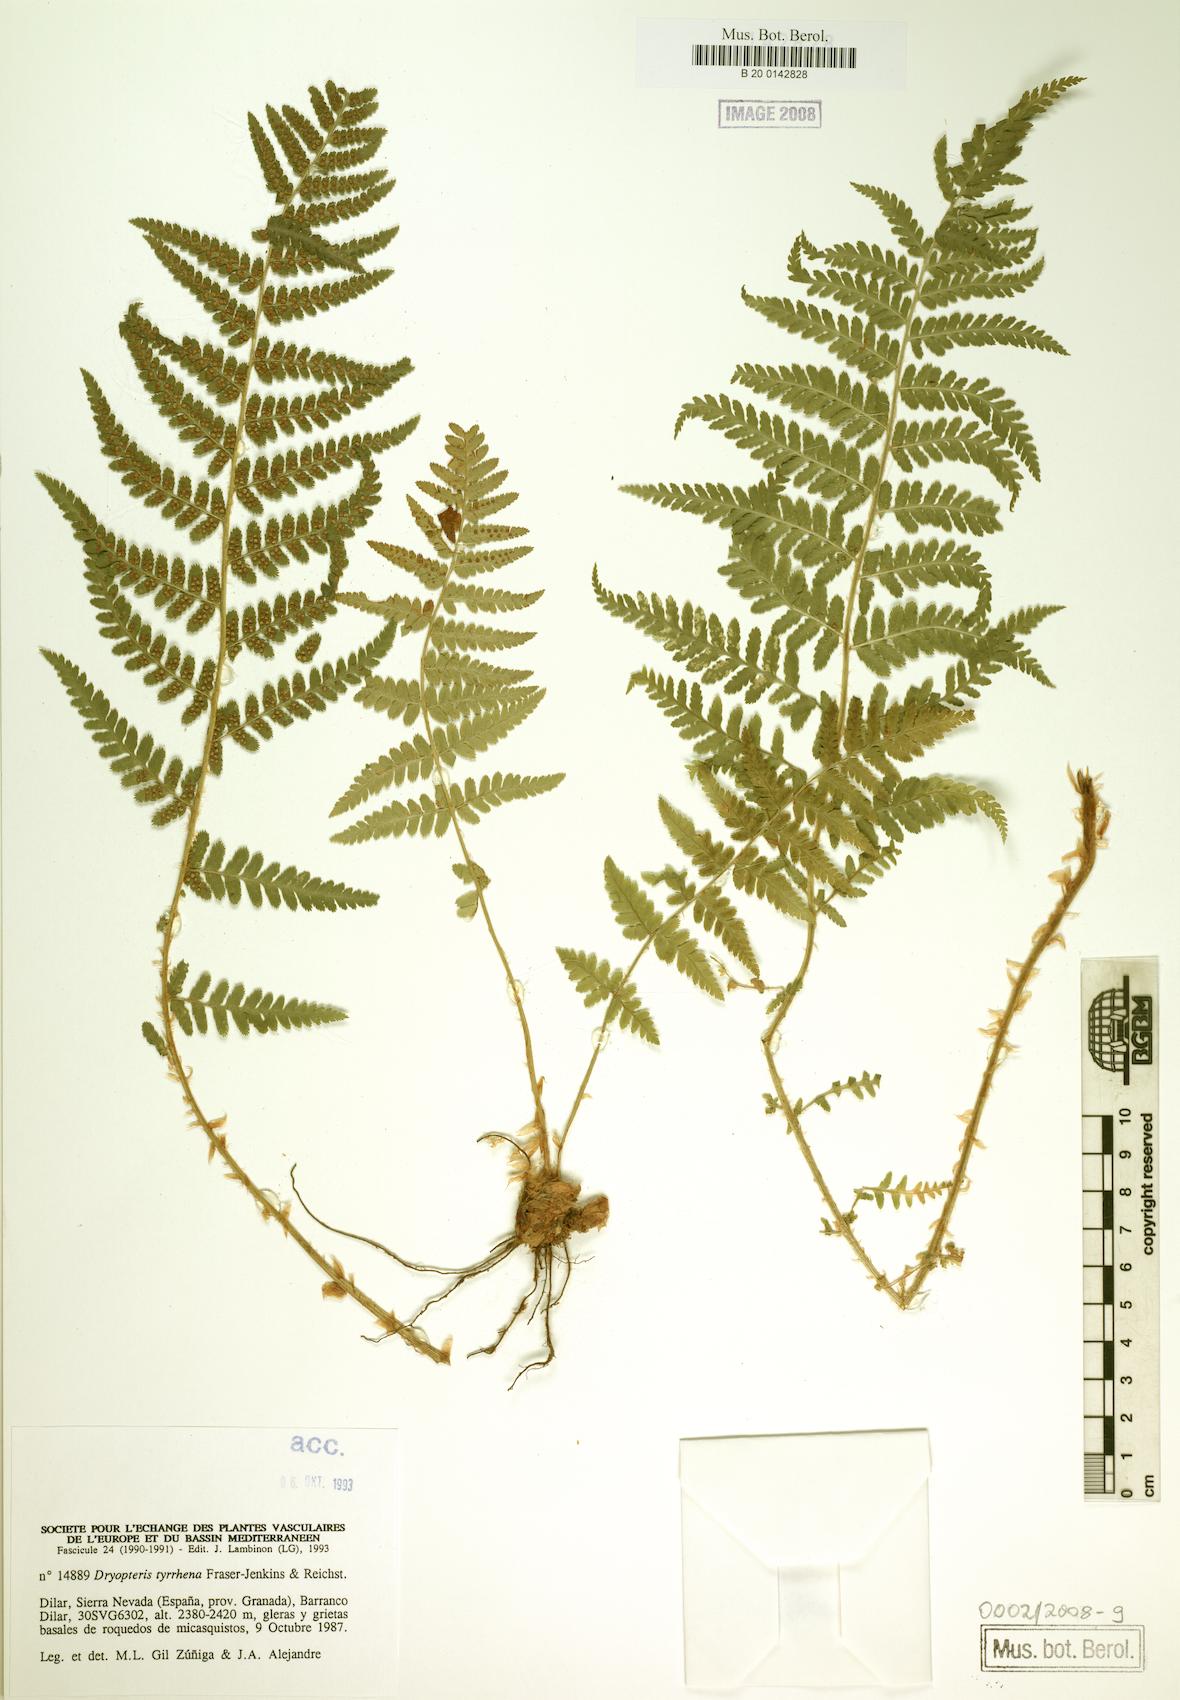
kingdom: Plantae
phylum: Tracheophyta
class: Polypodiopsida
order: Polypodiales
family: Dryopteridaceae
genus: Dryopteris
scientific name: Dryopteris tyrrhena
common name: Mediterranean buckler-fern
